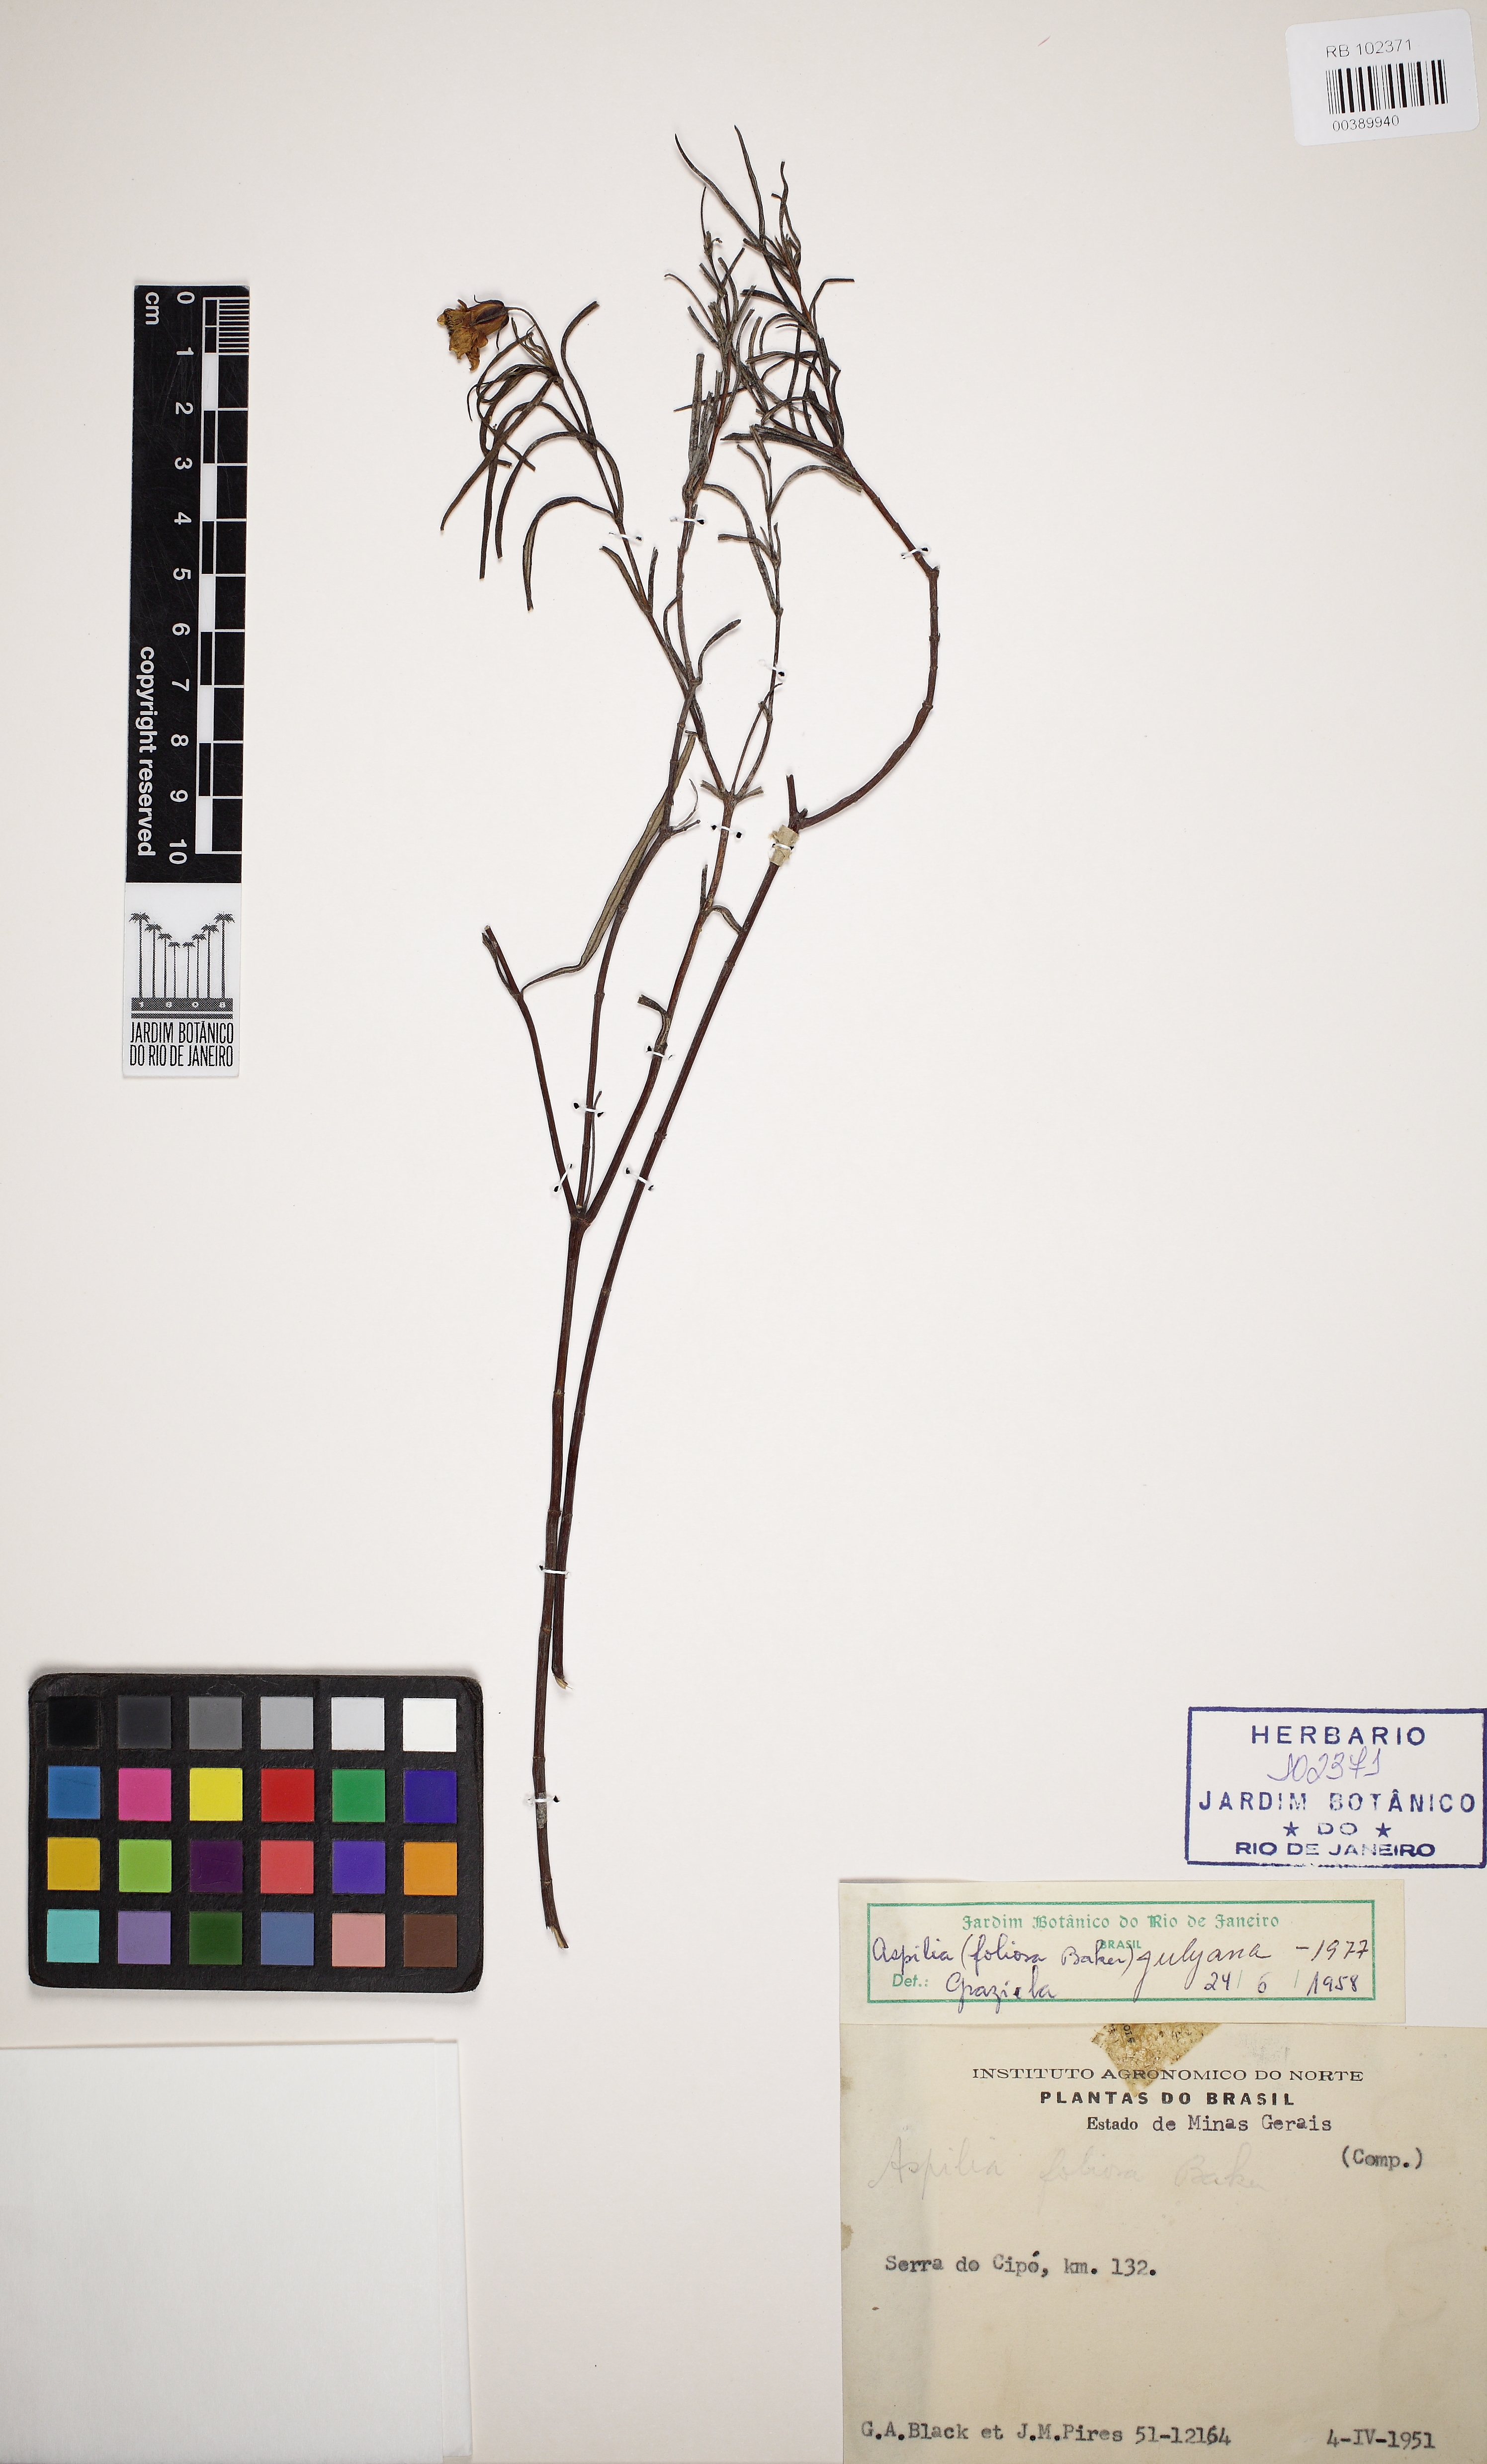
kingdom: Plantae
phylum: Tracheophyta
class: Magnoliopsida
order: Asterales
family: Asteraceae
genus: Aspilia
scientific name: Aspilia foliosa
